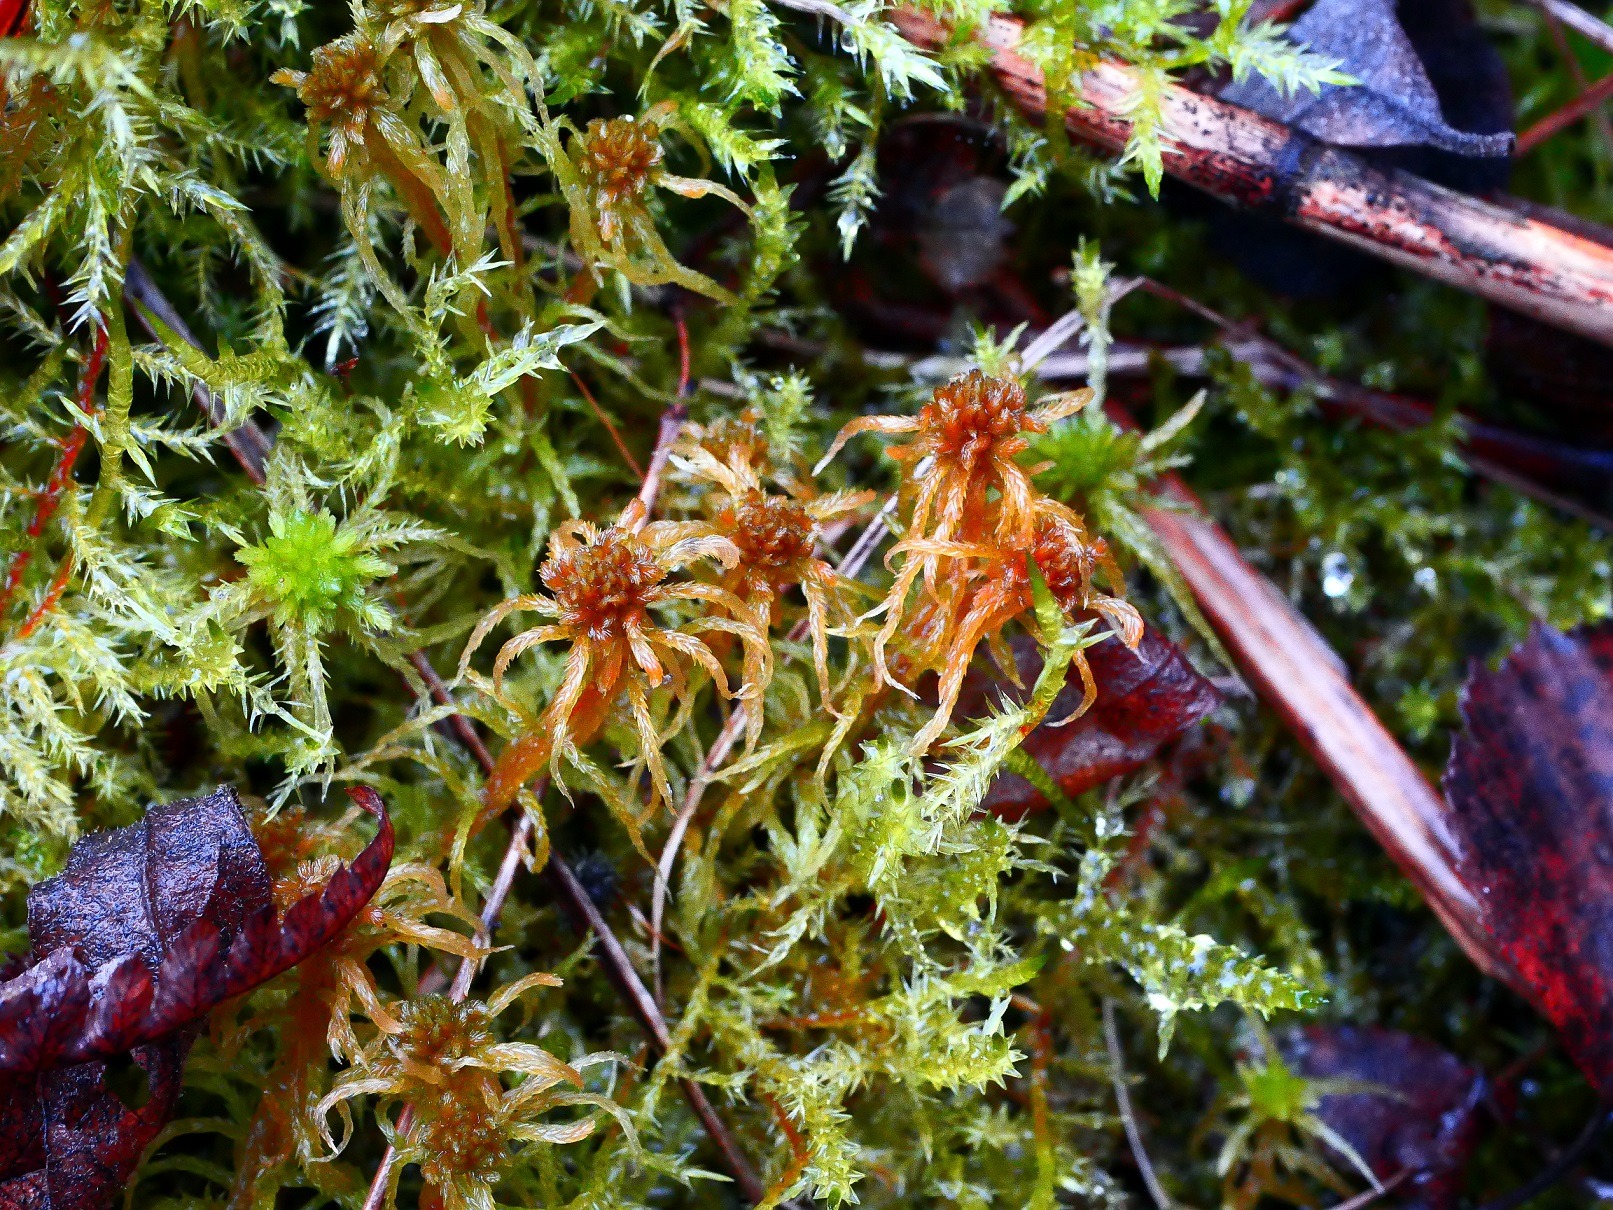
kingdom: Plantae
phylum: Bryophyta
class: Sphagnopsida
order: Sphagnales
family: Sphagnaceae
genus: Sphagnum
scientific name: Sphagnum contortum
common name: Krumbladet tørvemos
